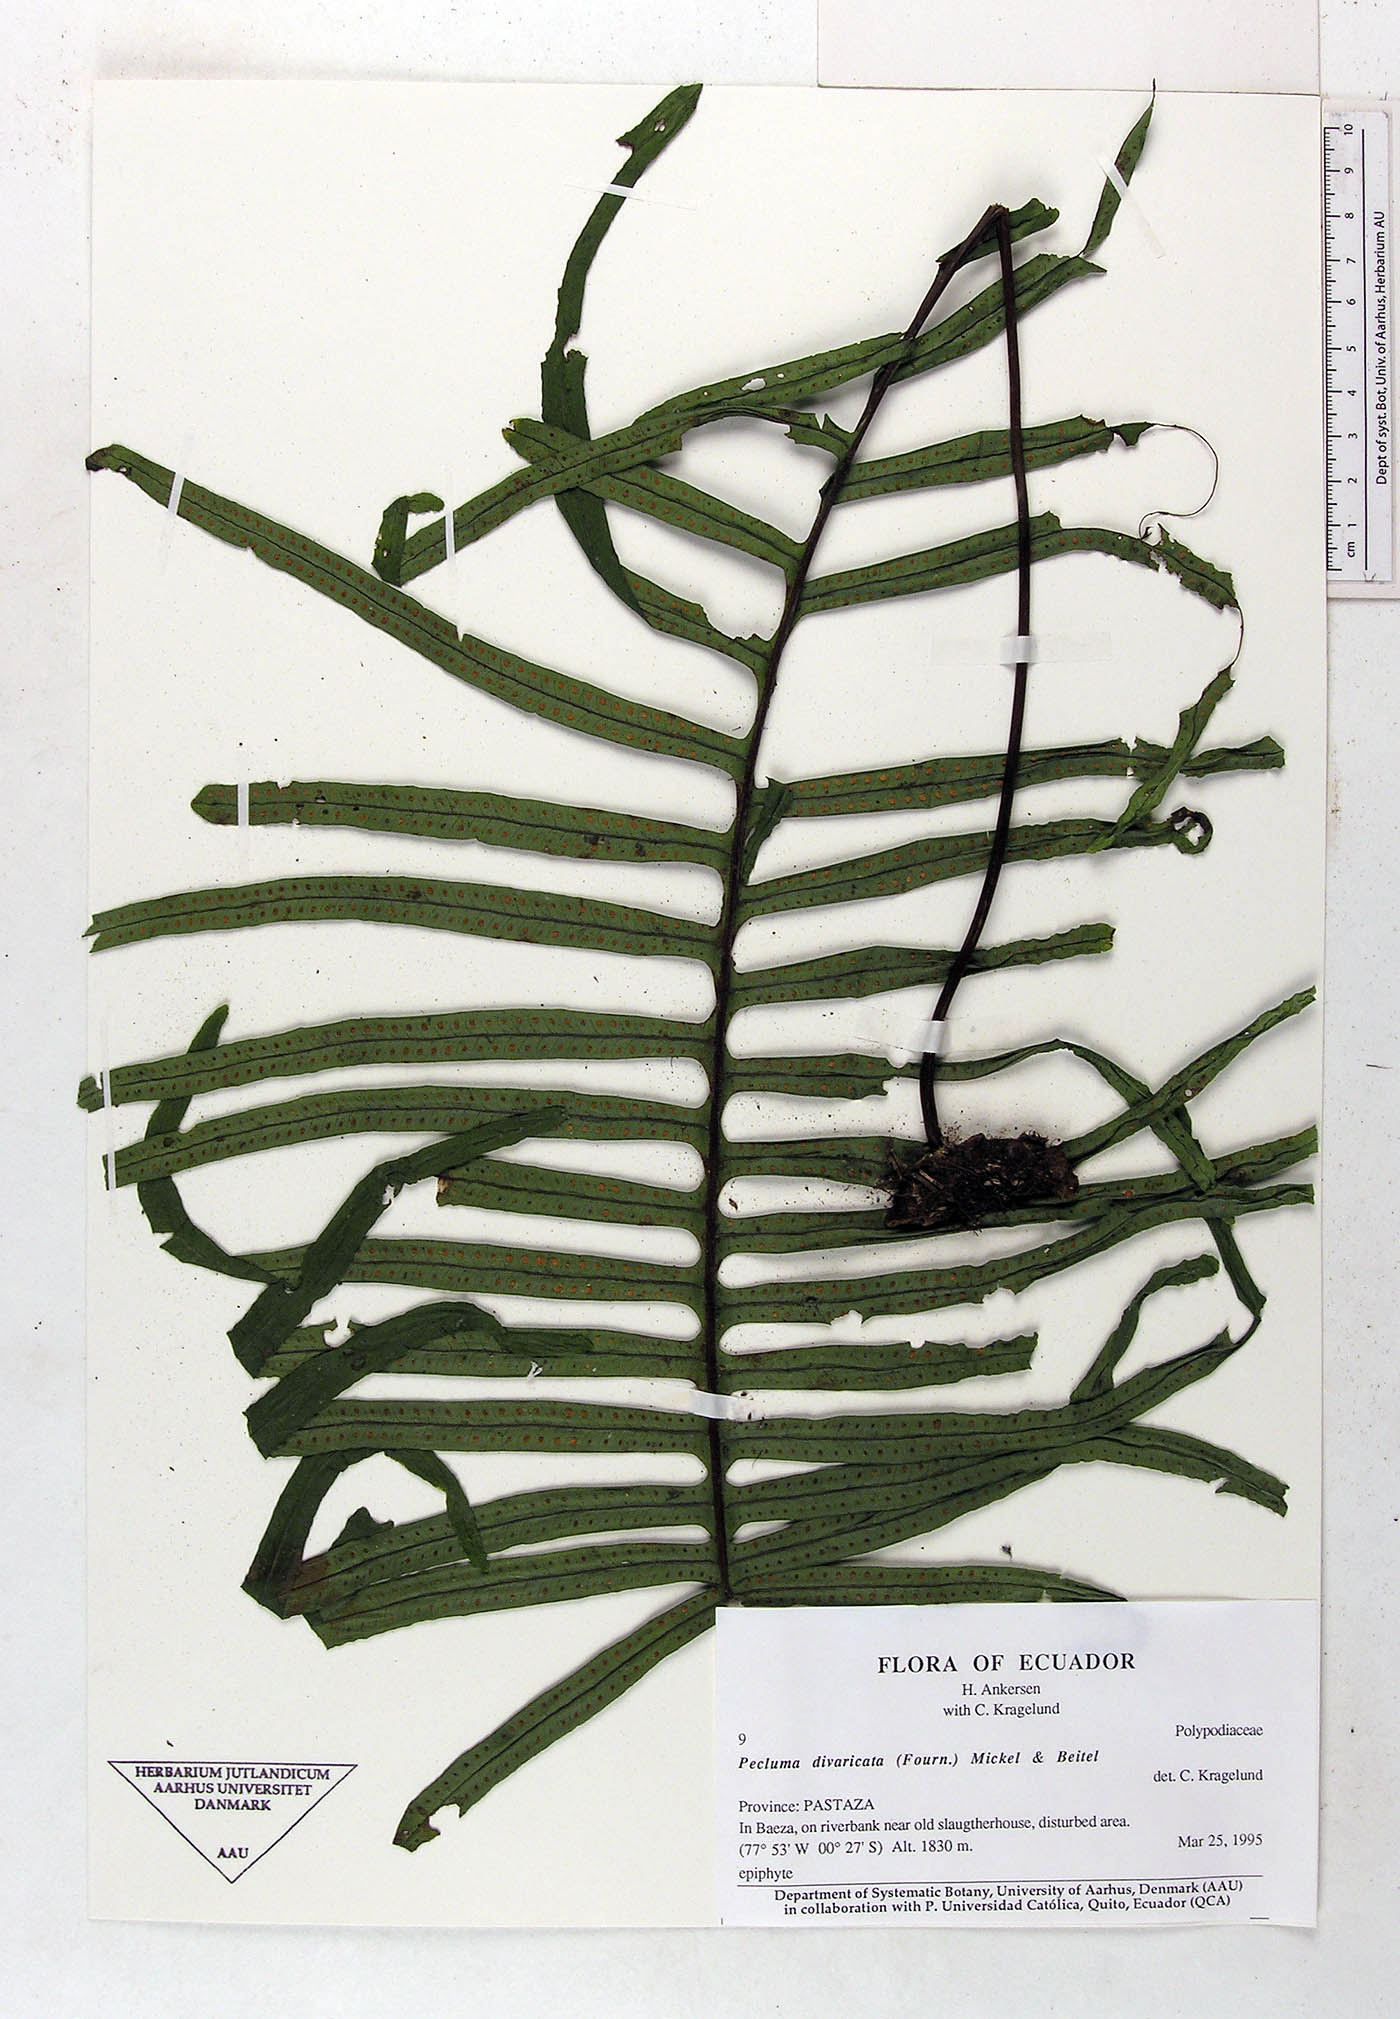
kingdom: Plantae
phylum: Tracheophyta
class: Polypodiopsida
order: Polypodiales
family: Polypodiaceae
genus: Pecluma
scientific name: Pecluma divaricata
